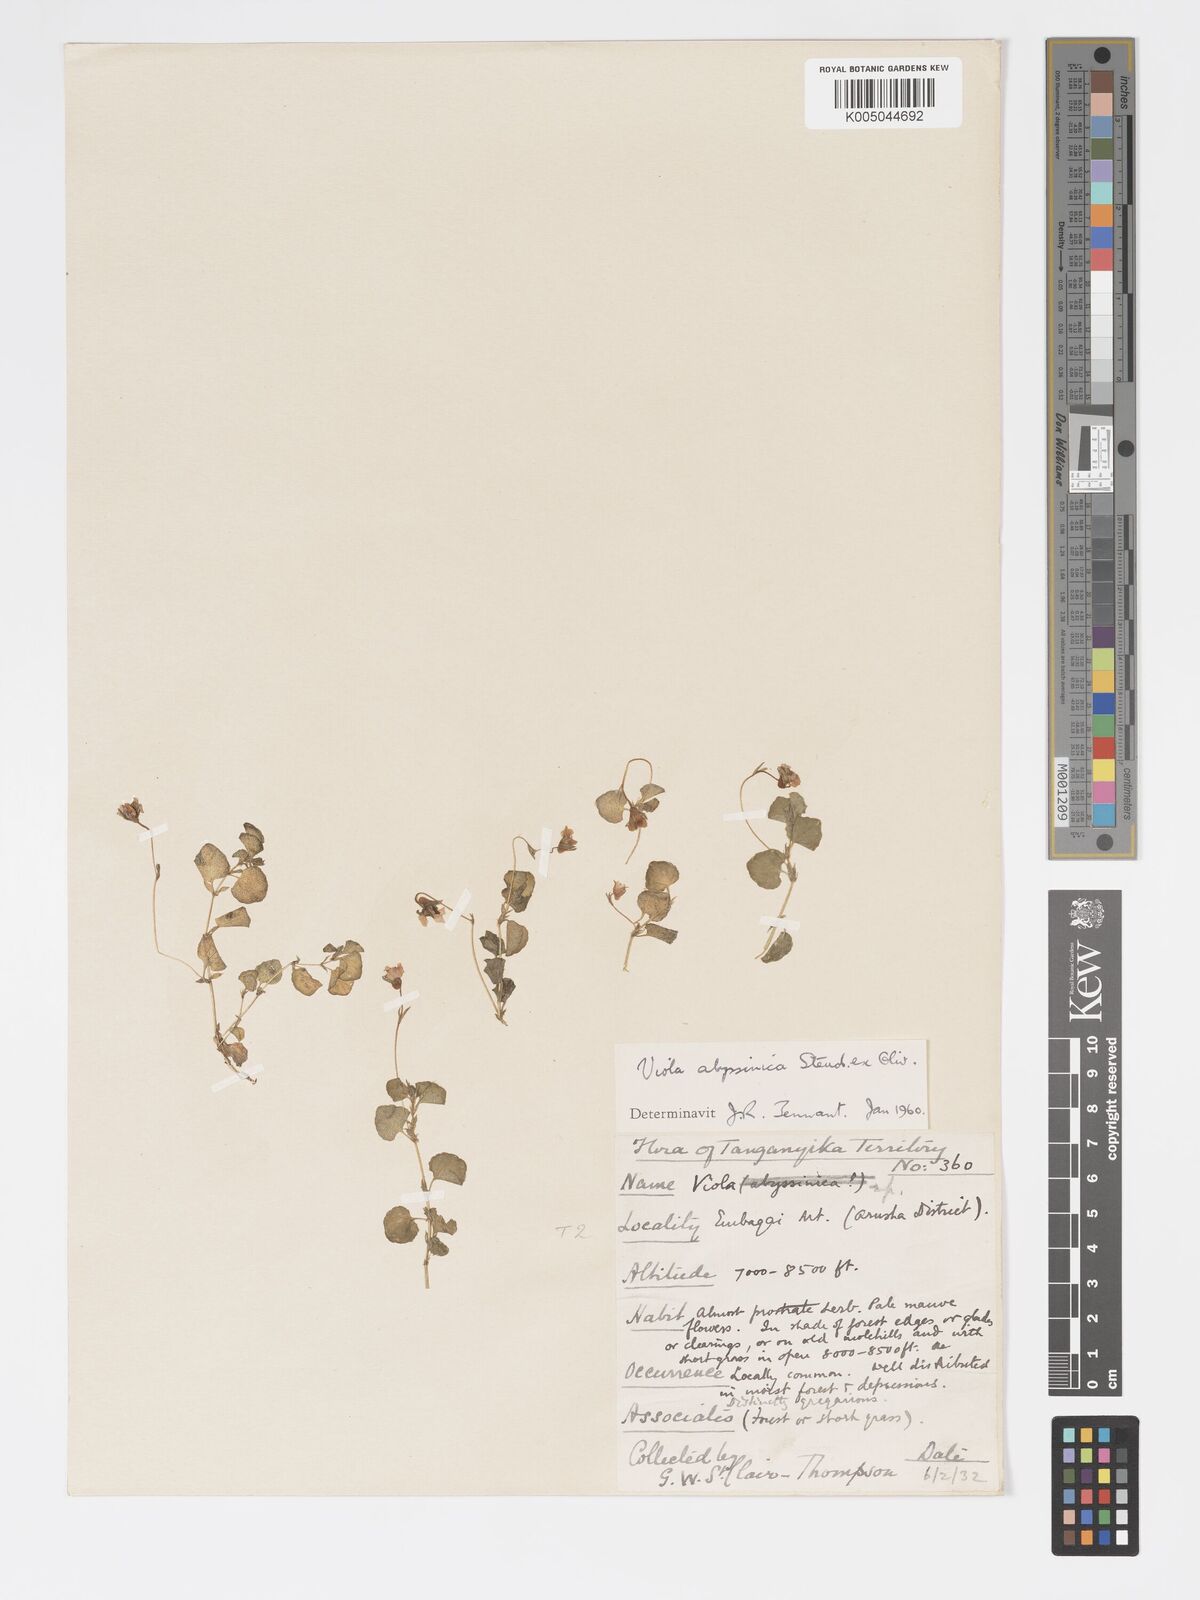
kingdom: Plantae
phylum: Tracheophyta
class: Magnoliopsida
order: Malpighiales
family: Violaceae
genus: Viola
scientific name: Viola abyssinica
